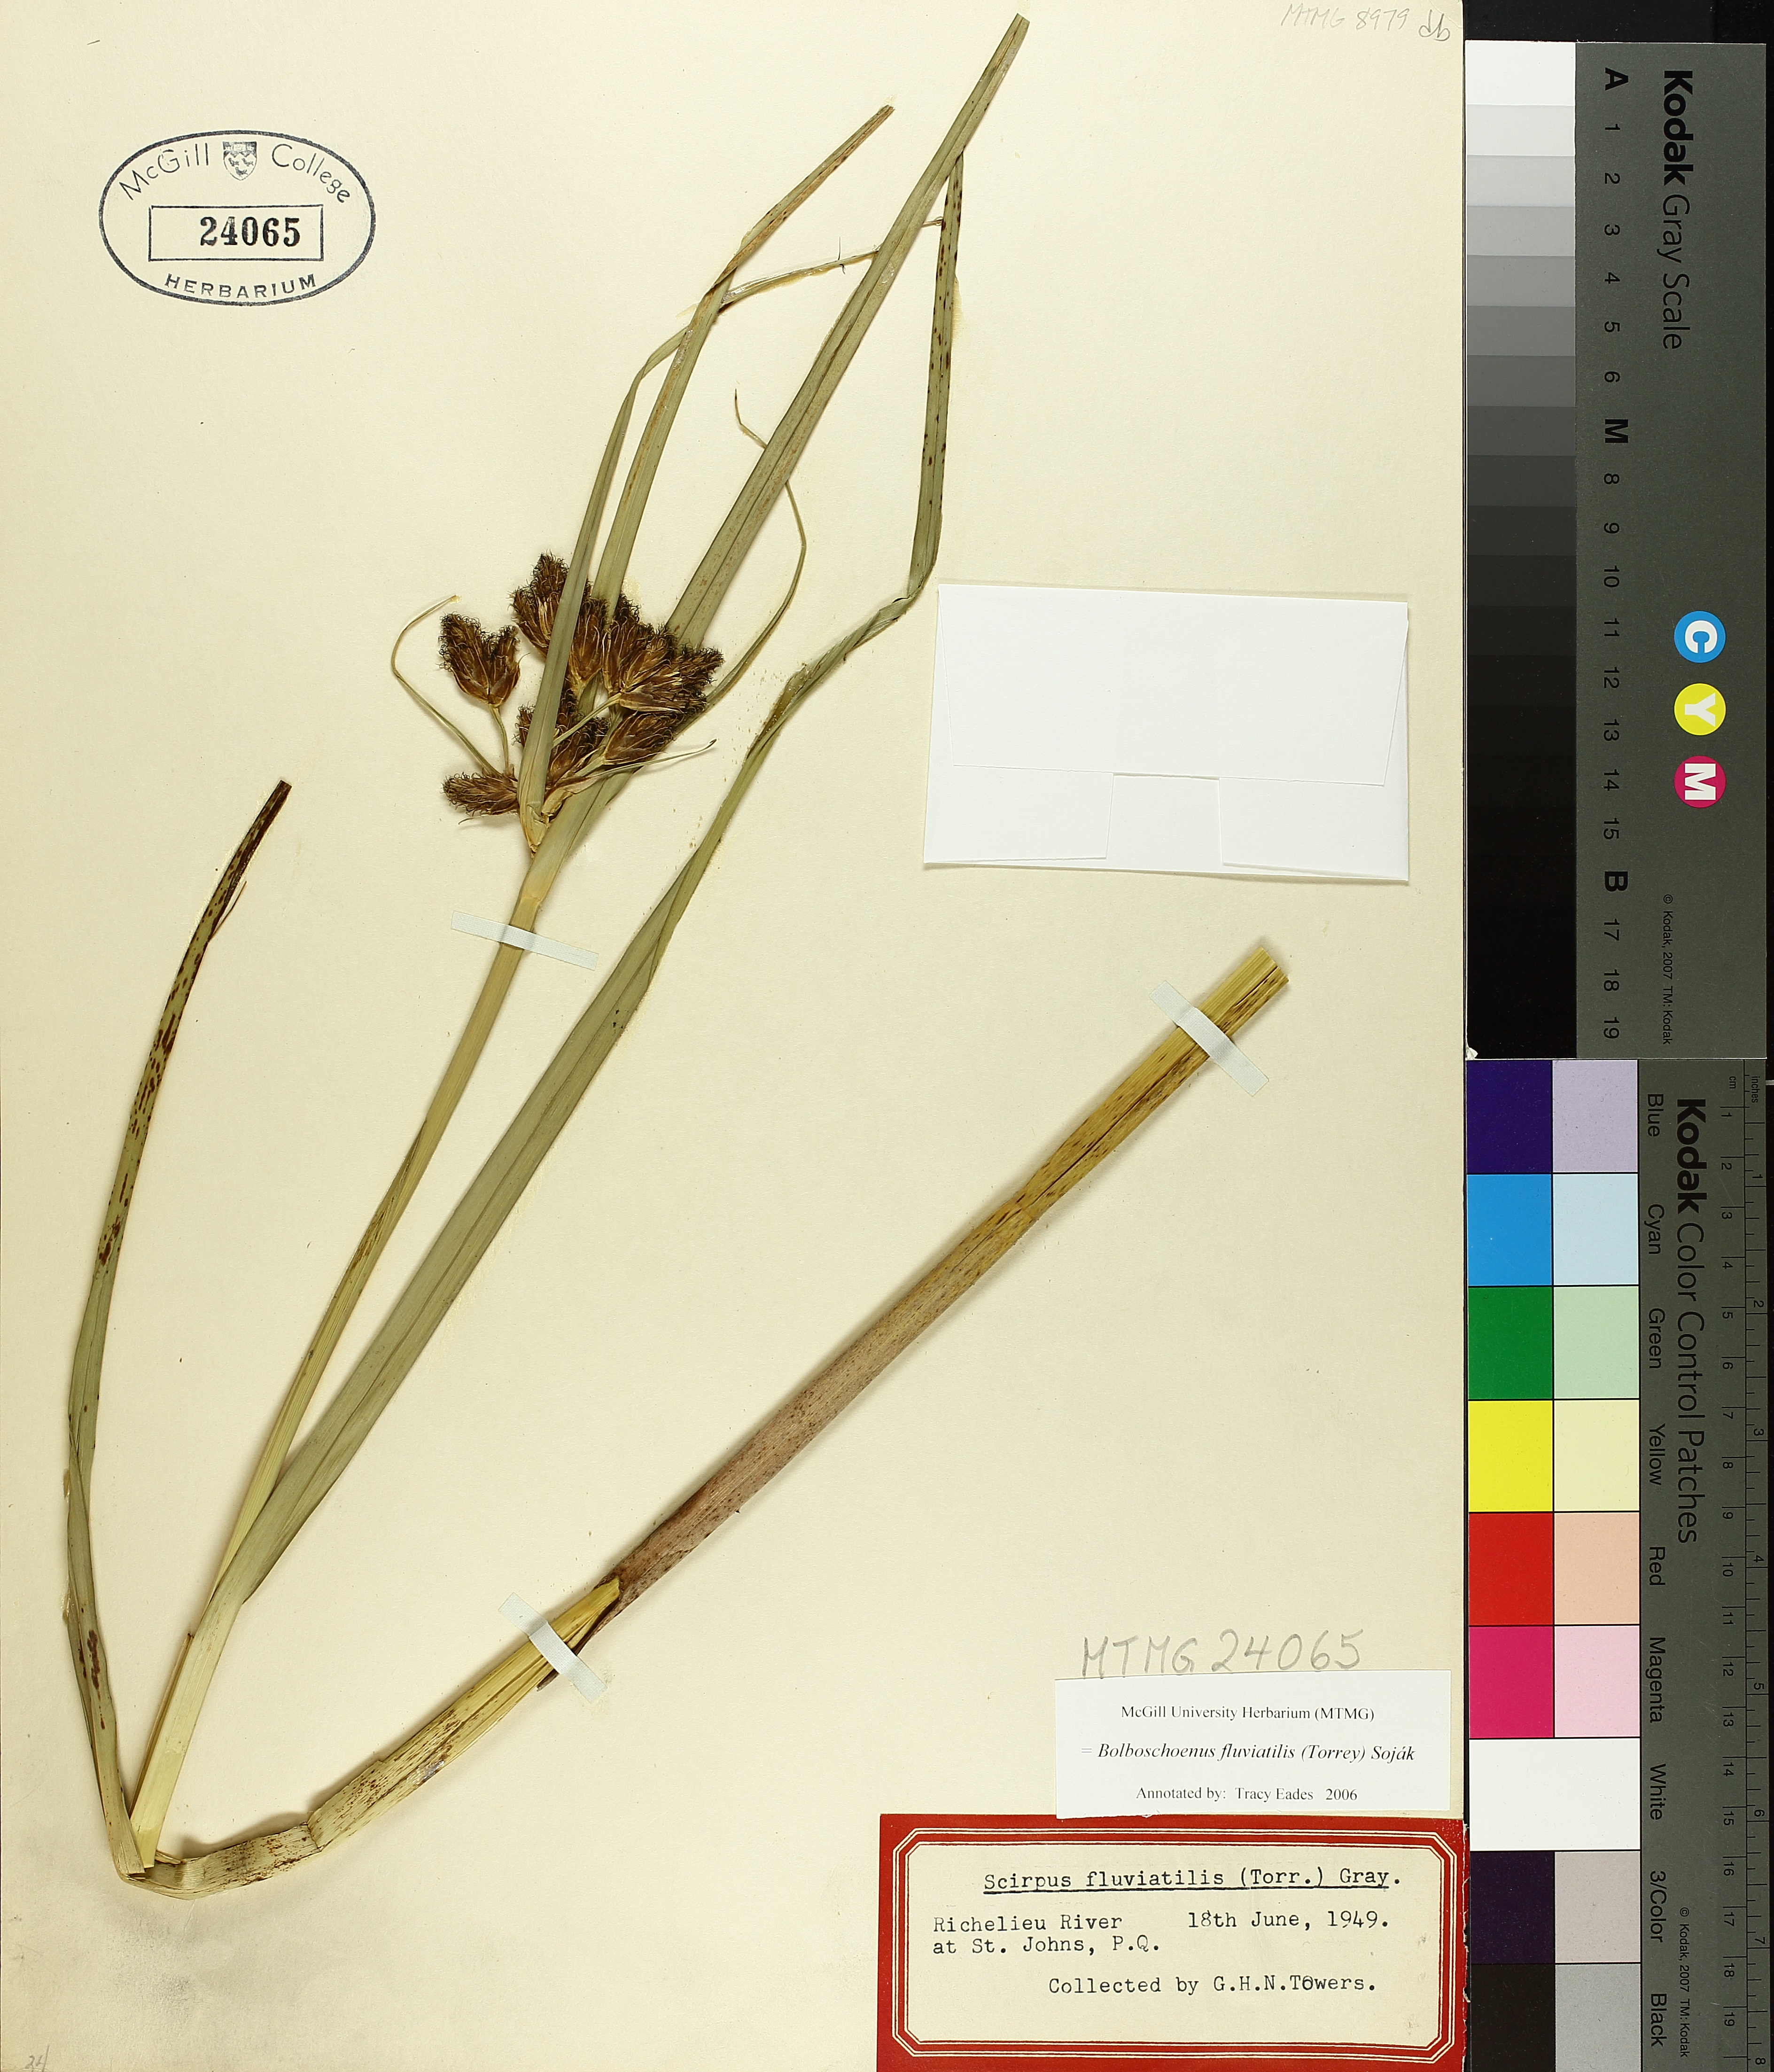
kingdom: Plantae
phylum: Tracheophyta
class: Liliopsida
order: Poales
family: Cyperaceae
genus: Bolboschoenus
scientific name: Bolboschoenus fluviatilis
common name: River bulrush
